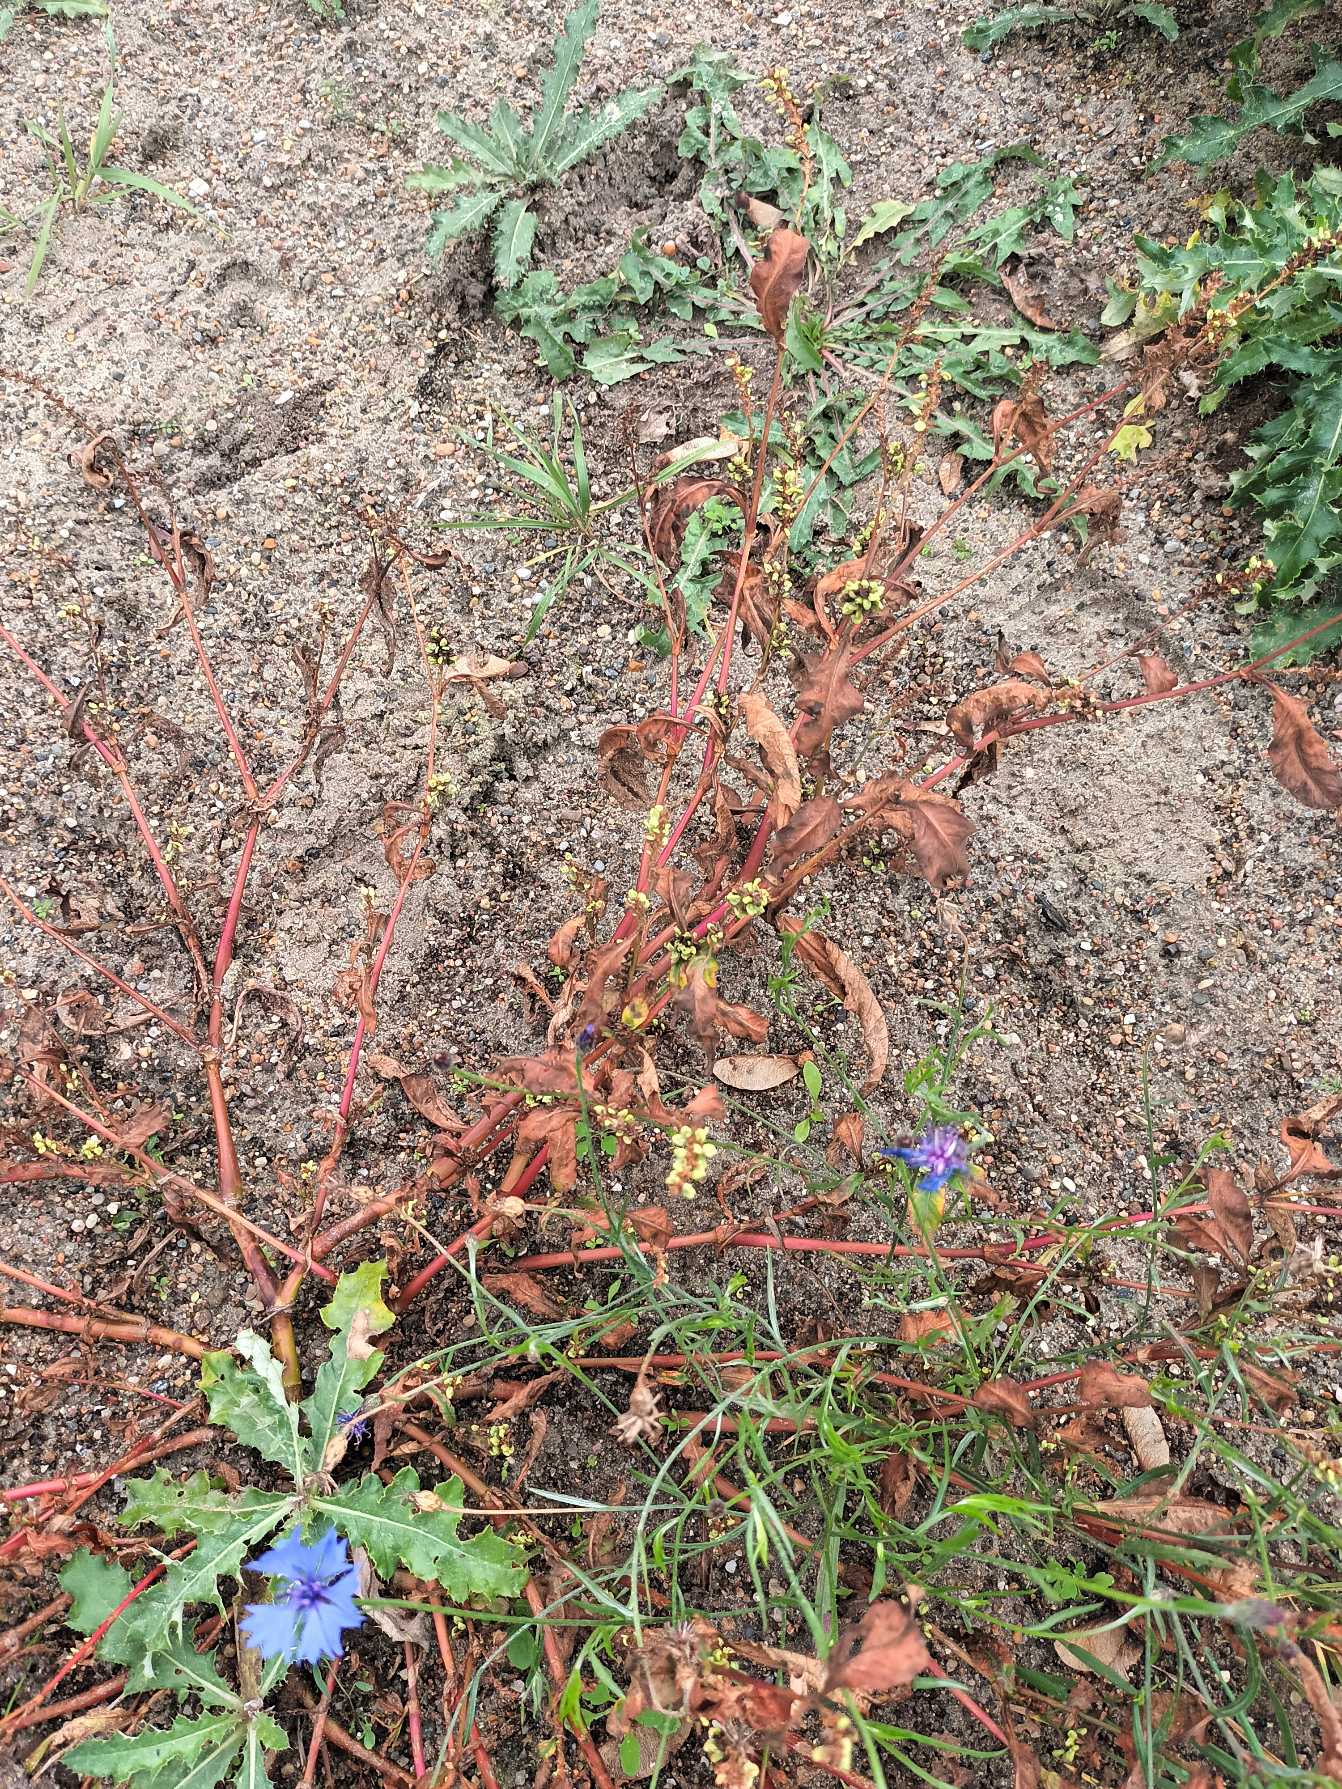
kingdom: Plantae
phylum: Tracheophyta
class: Magnoliopsida
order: Caryophyllales
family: Polygonaceae
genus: Persicaria
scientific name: Persicaria lapathifolia
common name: Knudet pileurt
